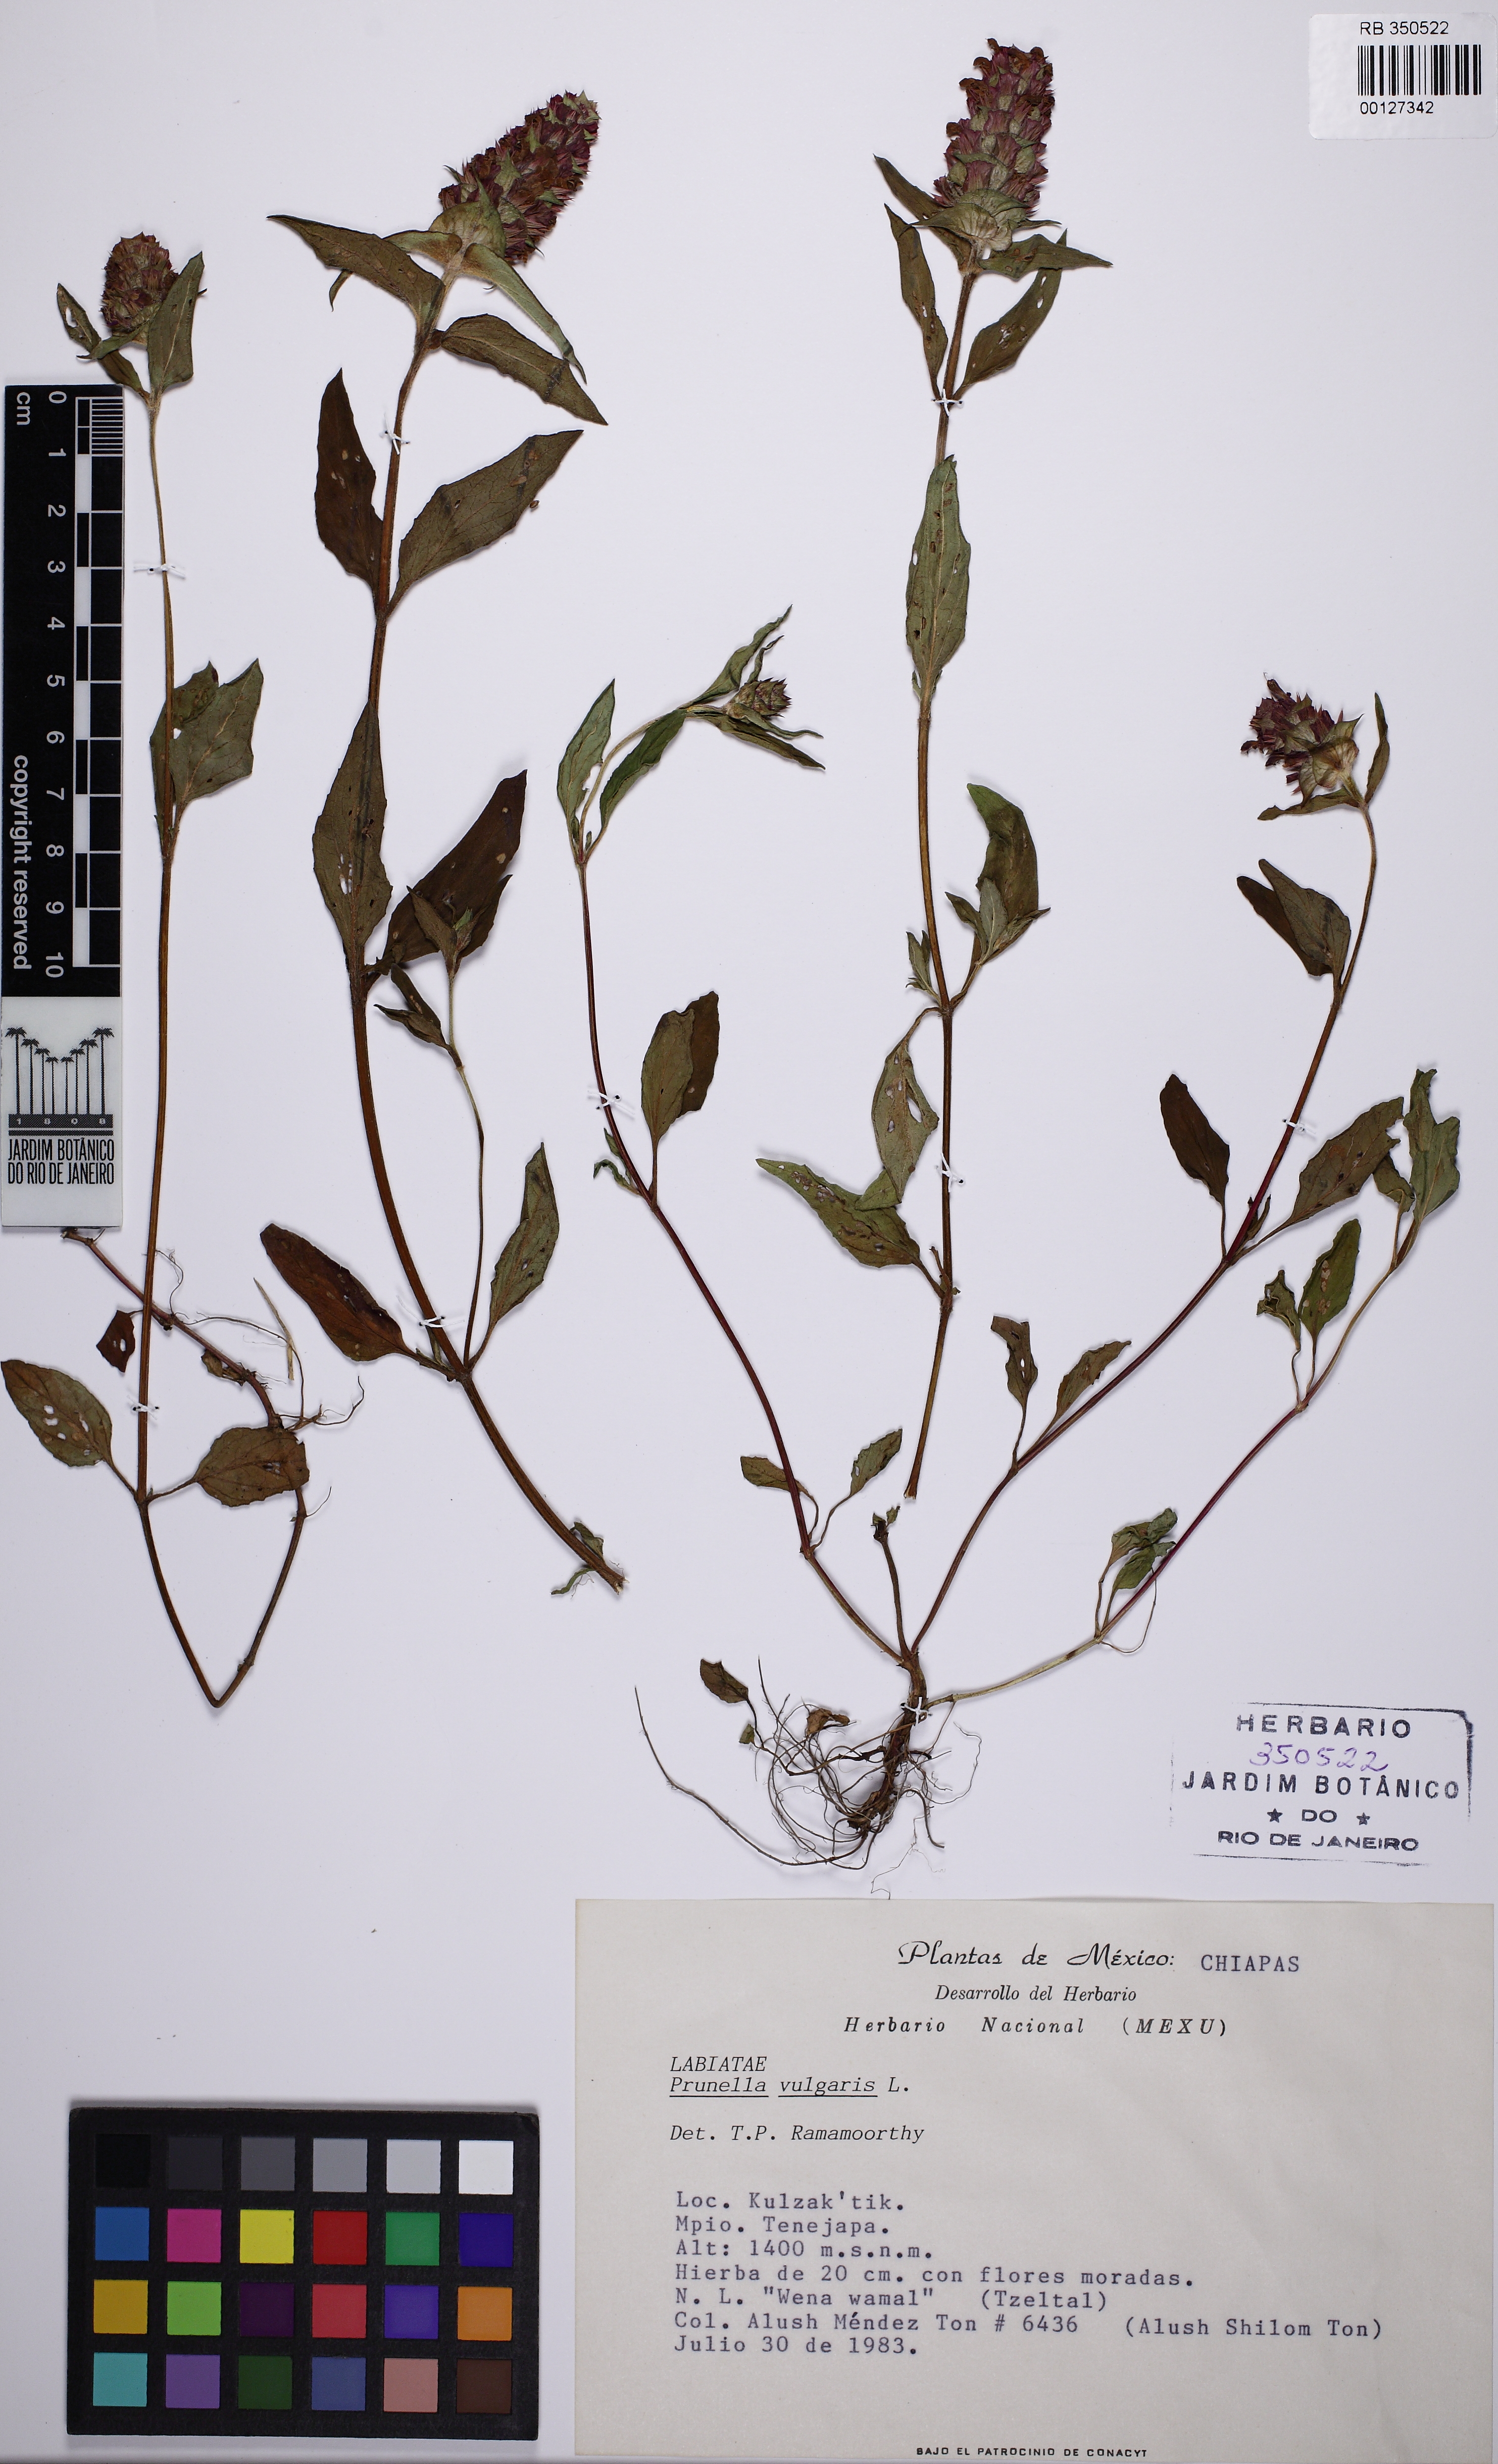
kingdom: Plantae
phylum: Tracheophyta
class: Magnoliopsida
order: Lamiales
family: Lamiaceae
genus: Prunella
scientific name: Prunella vulgaris
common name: Heal-all
